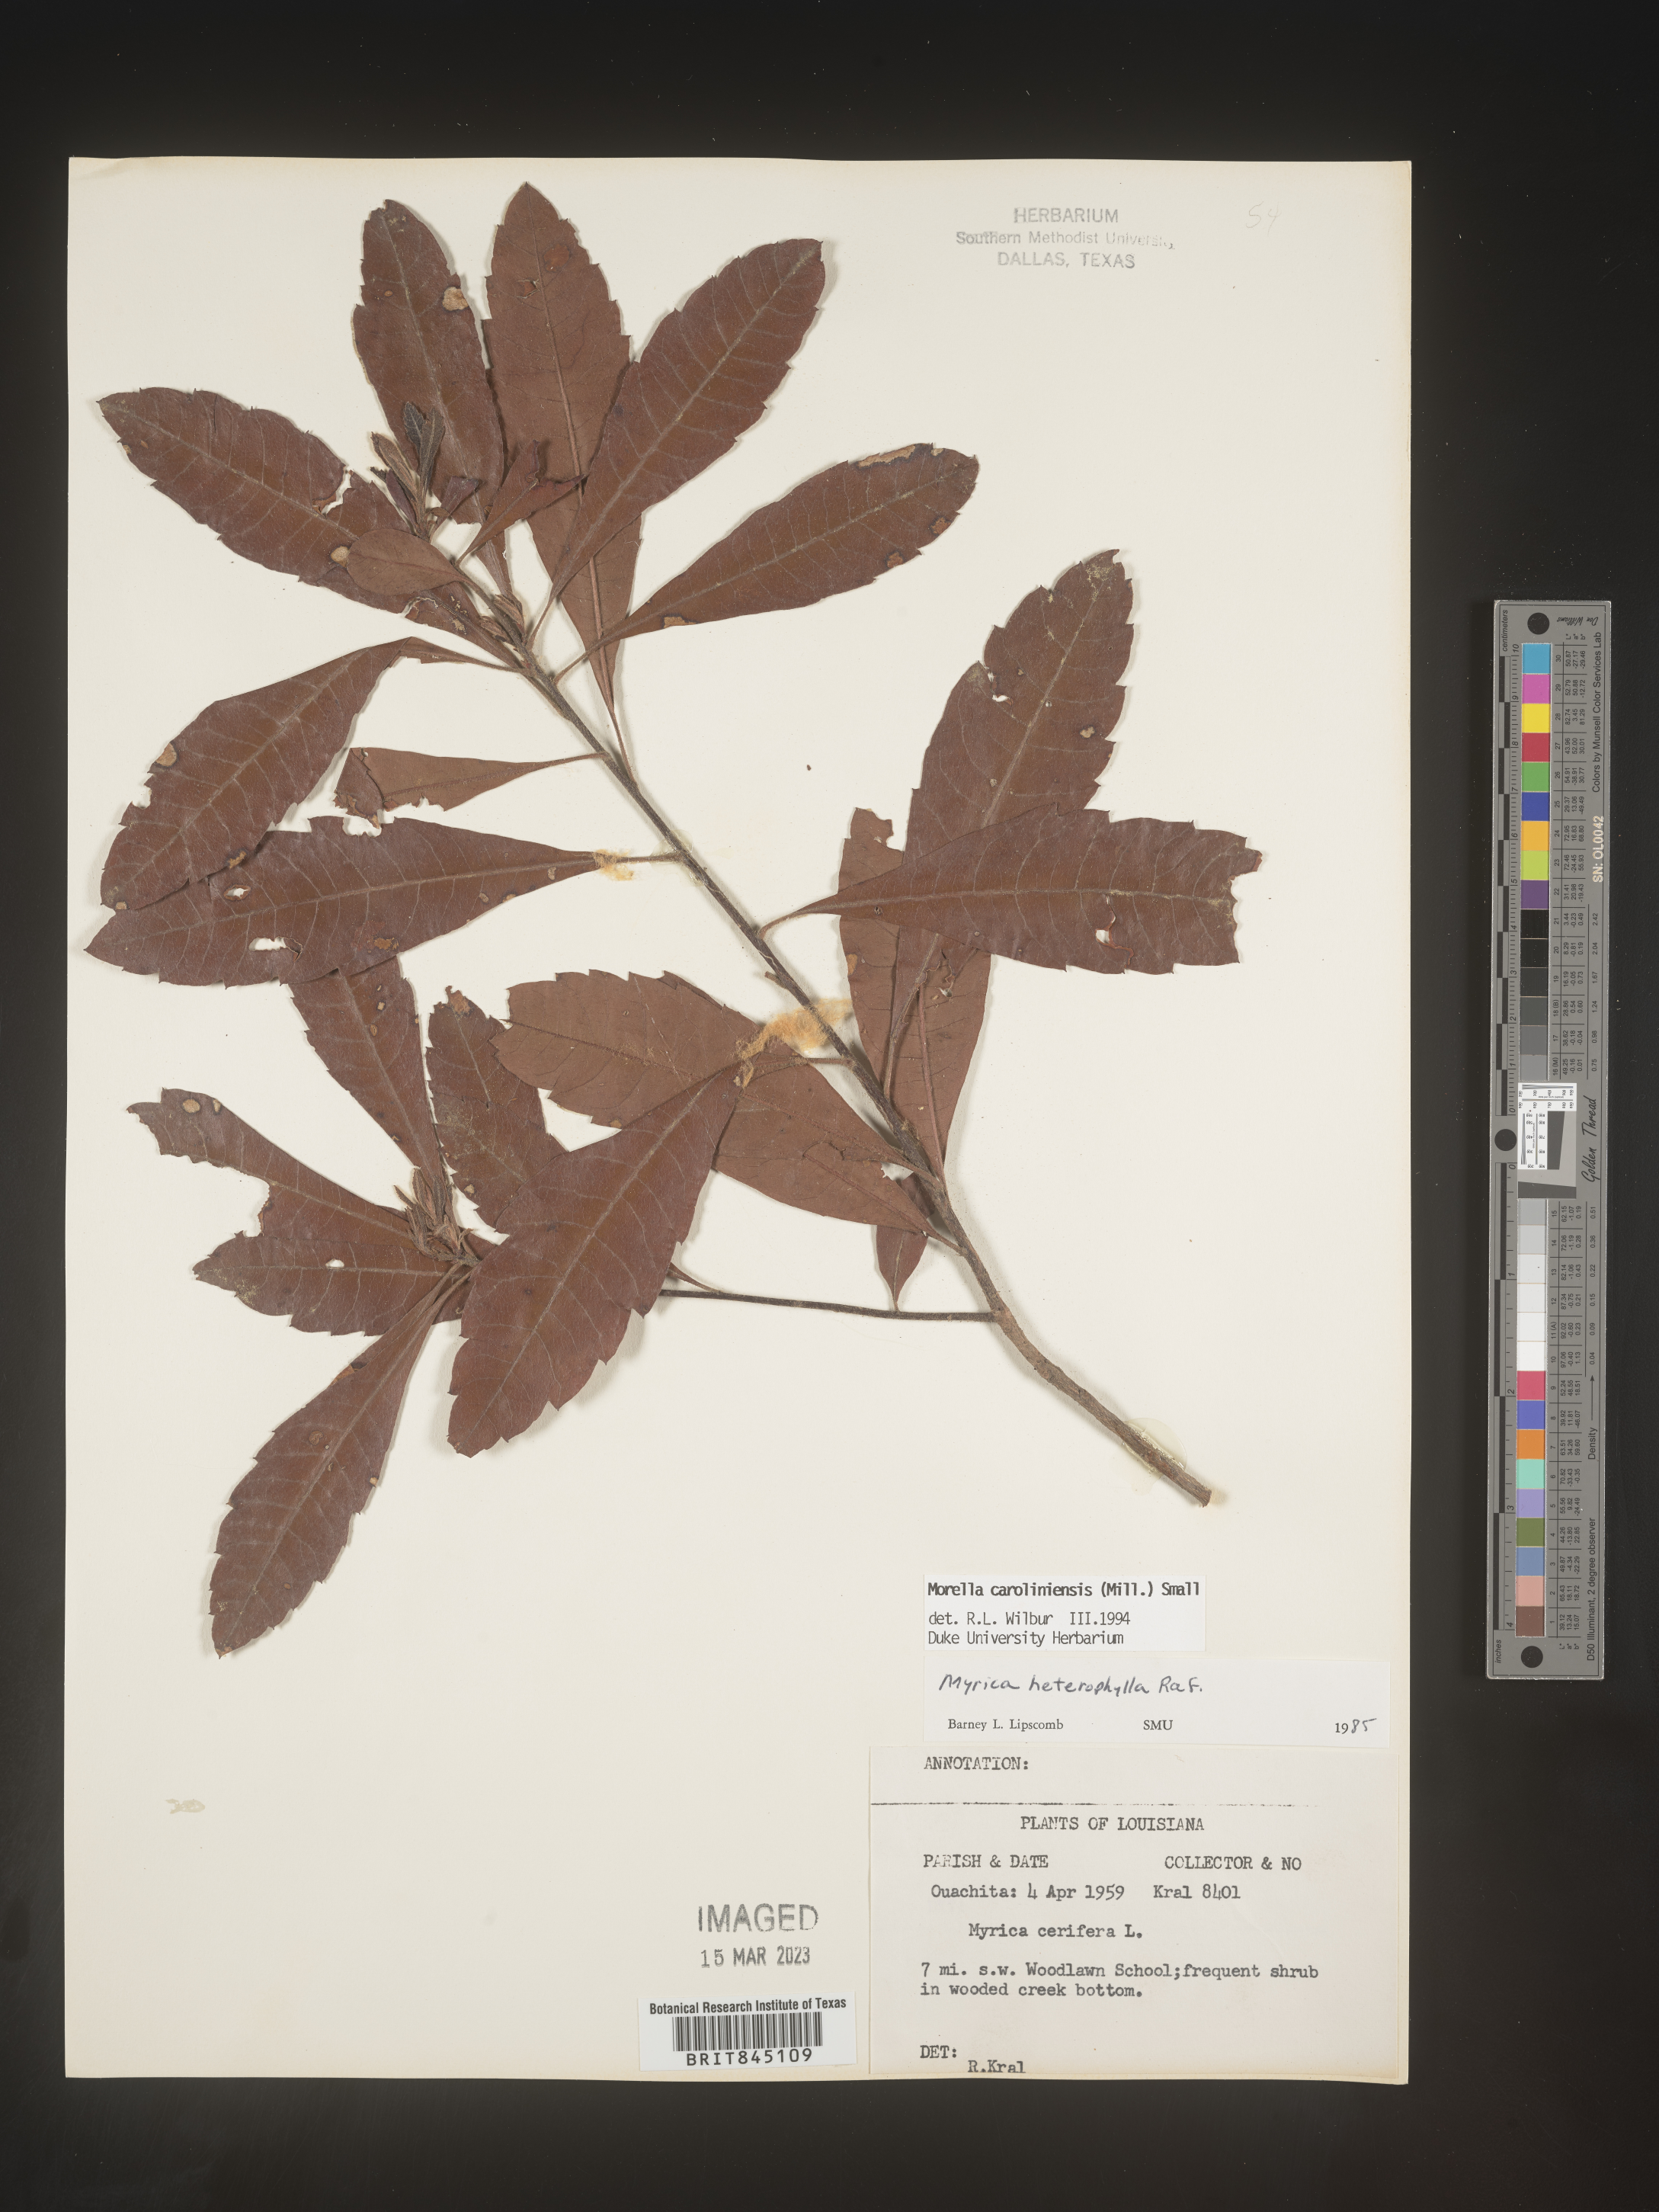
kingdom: Plantae
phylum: Tracheophyta
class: Magnoliopsida
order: Fagales
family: Myricaceae
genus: Morella
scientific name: Morella caroliniensis
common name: Evergreen bayberry
